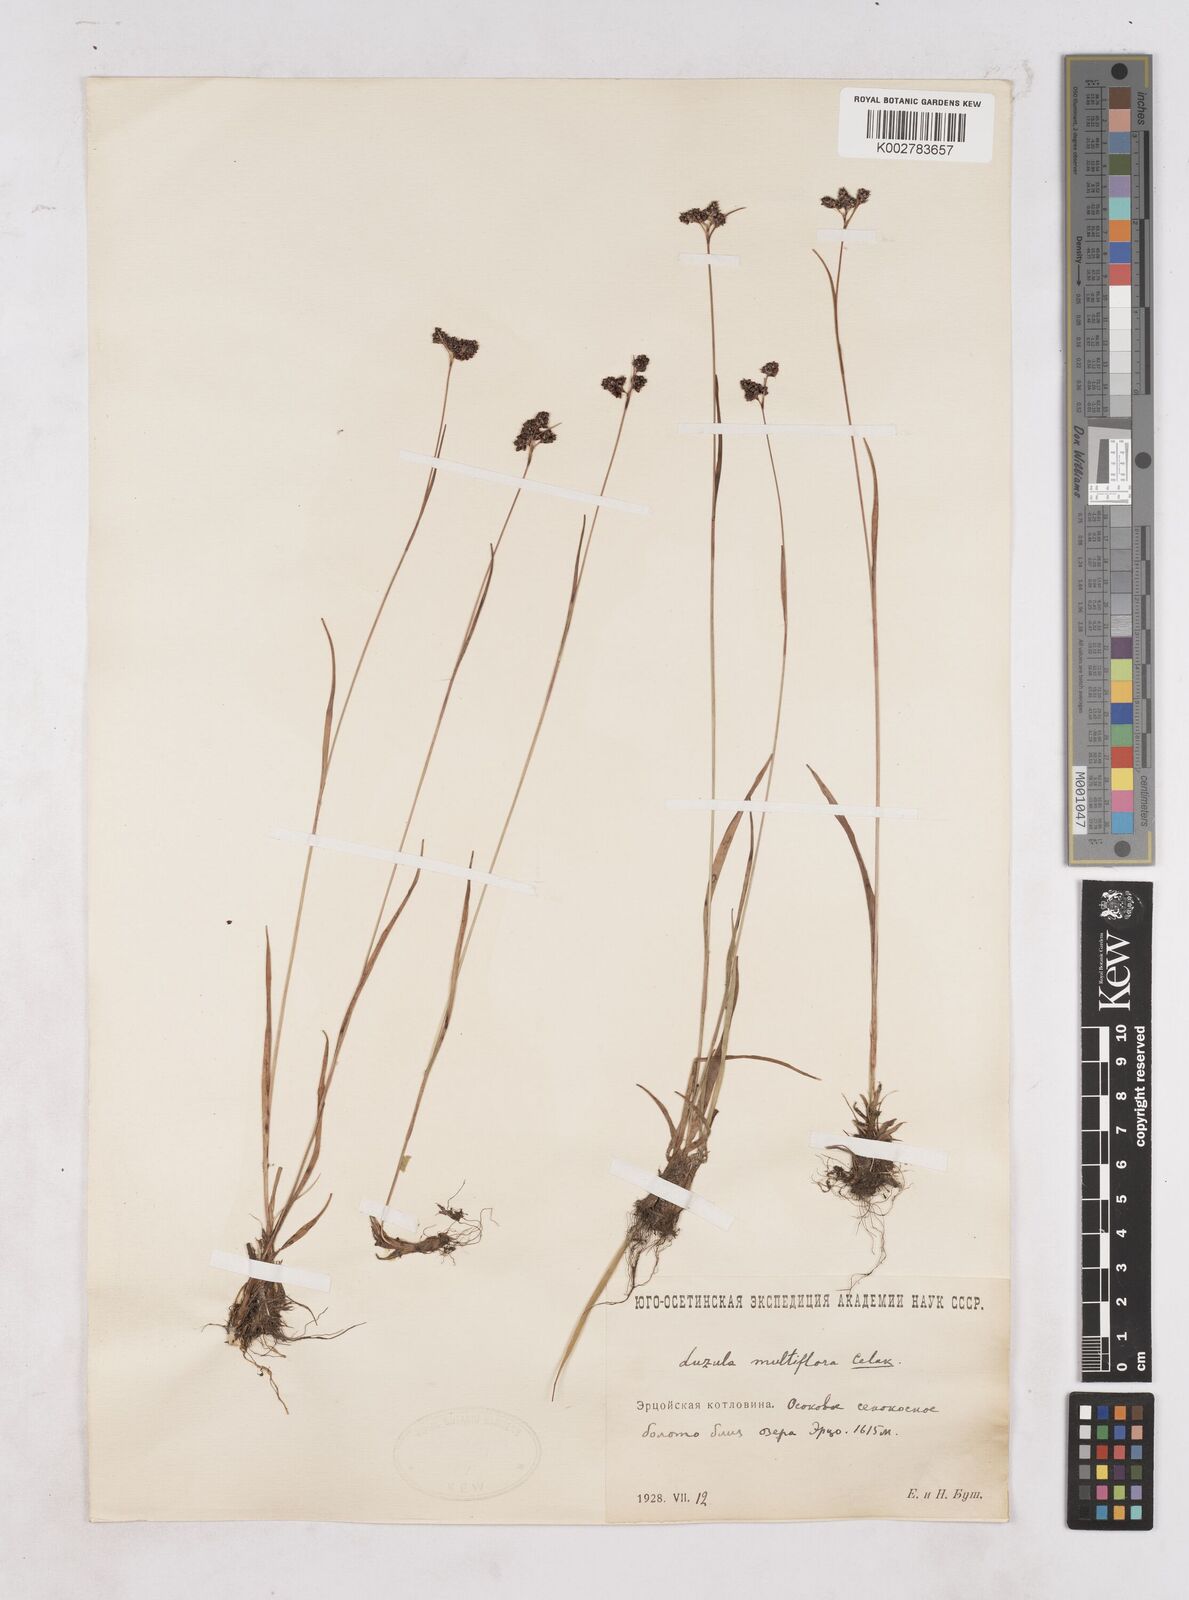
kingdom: Plantae
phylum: Tracheophyta
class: Liliopsida
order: Poales
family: Juncaceae
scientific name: Juncaceae
